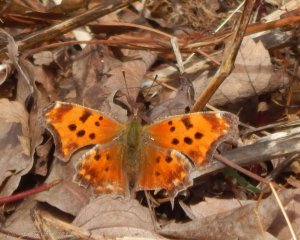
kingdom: Animalia
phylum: Arthropoda
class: Insecta
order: Lepidoptera
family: Nymphalidae
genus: Polygonia
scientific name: Polygonia comma
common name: Eastern Comma
